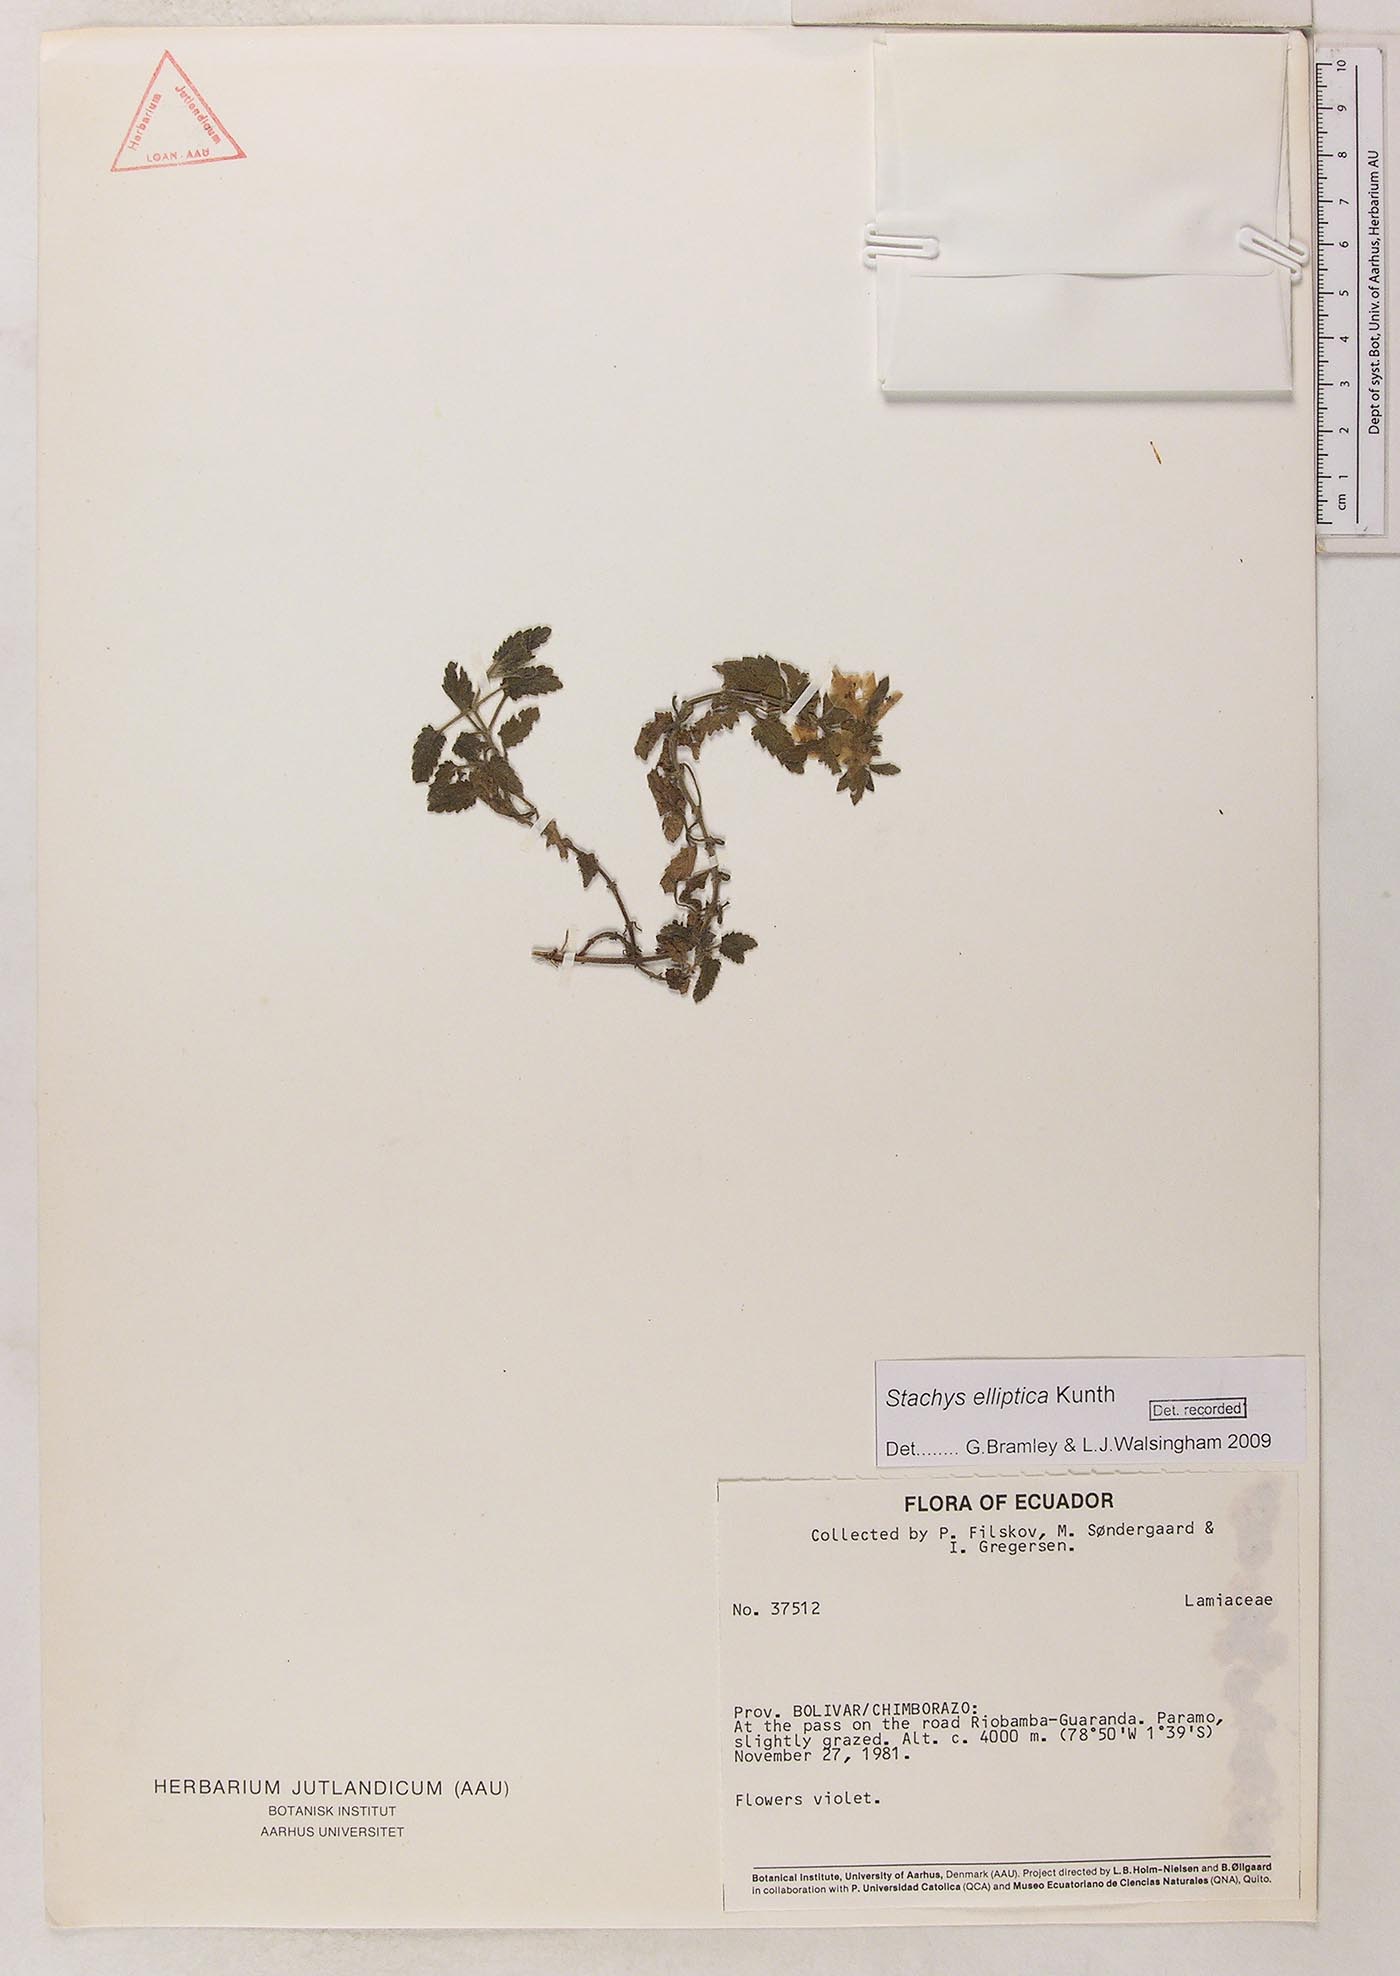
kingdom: Plantae
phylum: Tracheophyta
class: Magnoliopsida
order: Lamiales
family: Lamiaceae
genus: Stachys
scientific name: Stachys elliptica
